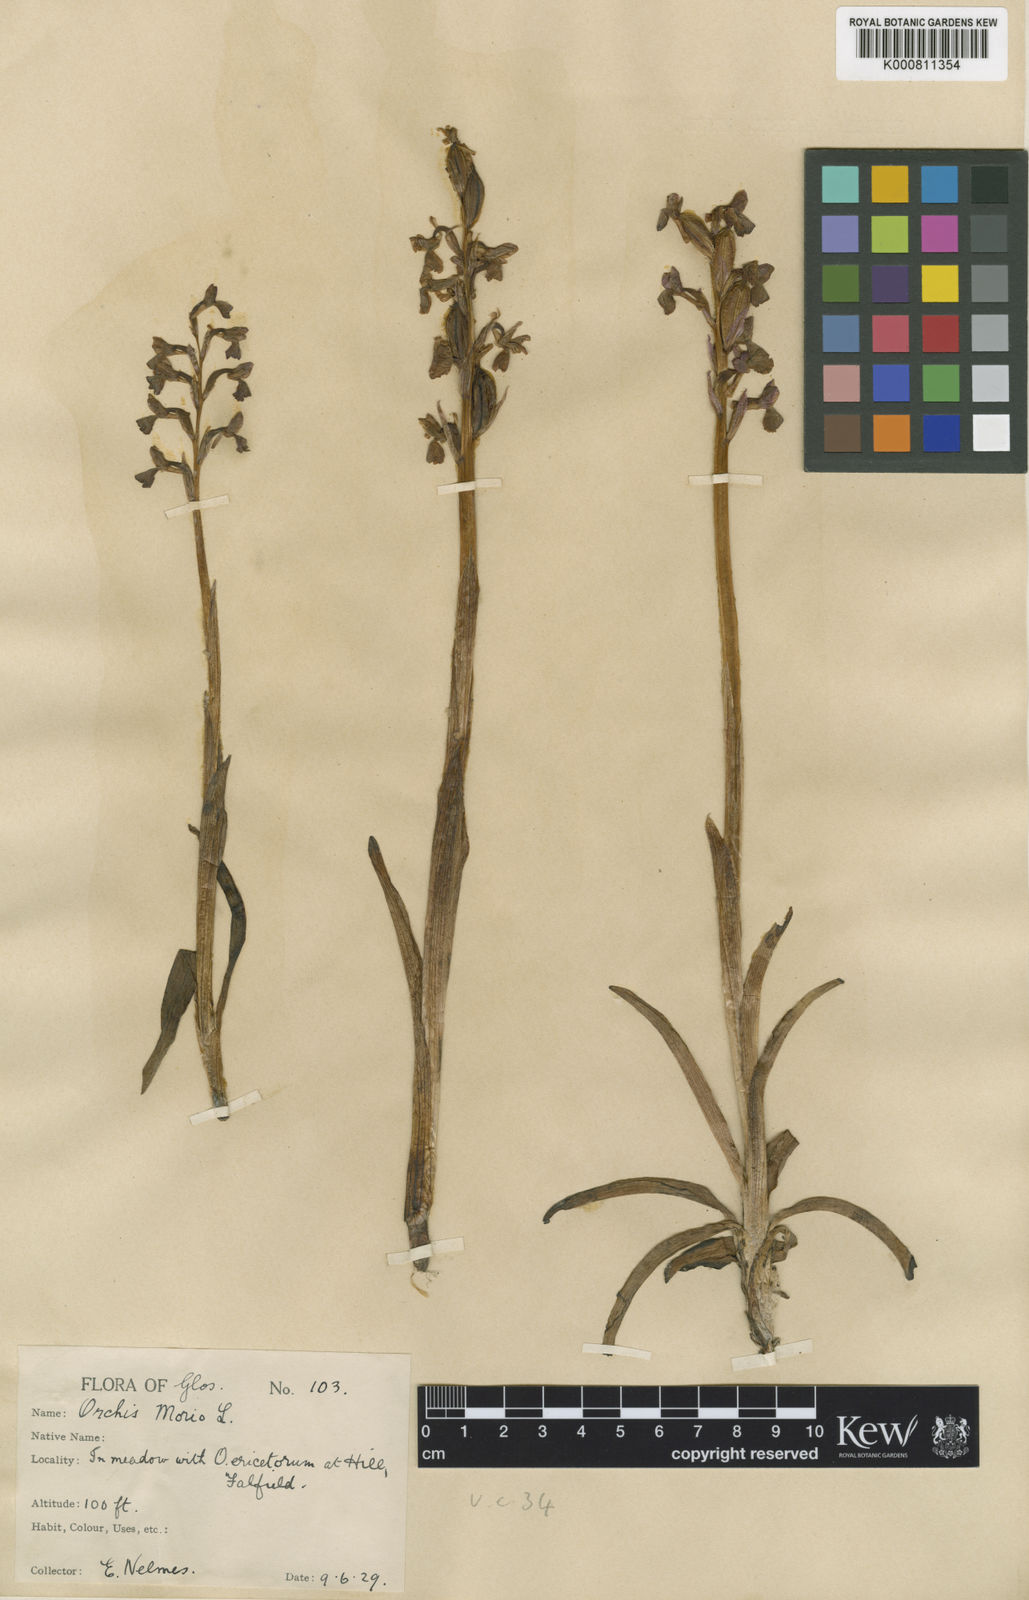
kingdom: Plantae
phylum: Tracheophyta
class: Liliopsida
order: Asparagales
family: Orchidaceae
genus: Anacamptis
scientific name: Anacamptis morio
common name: Green-winged orchid
